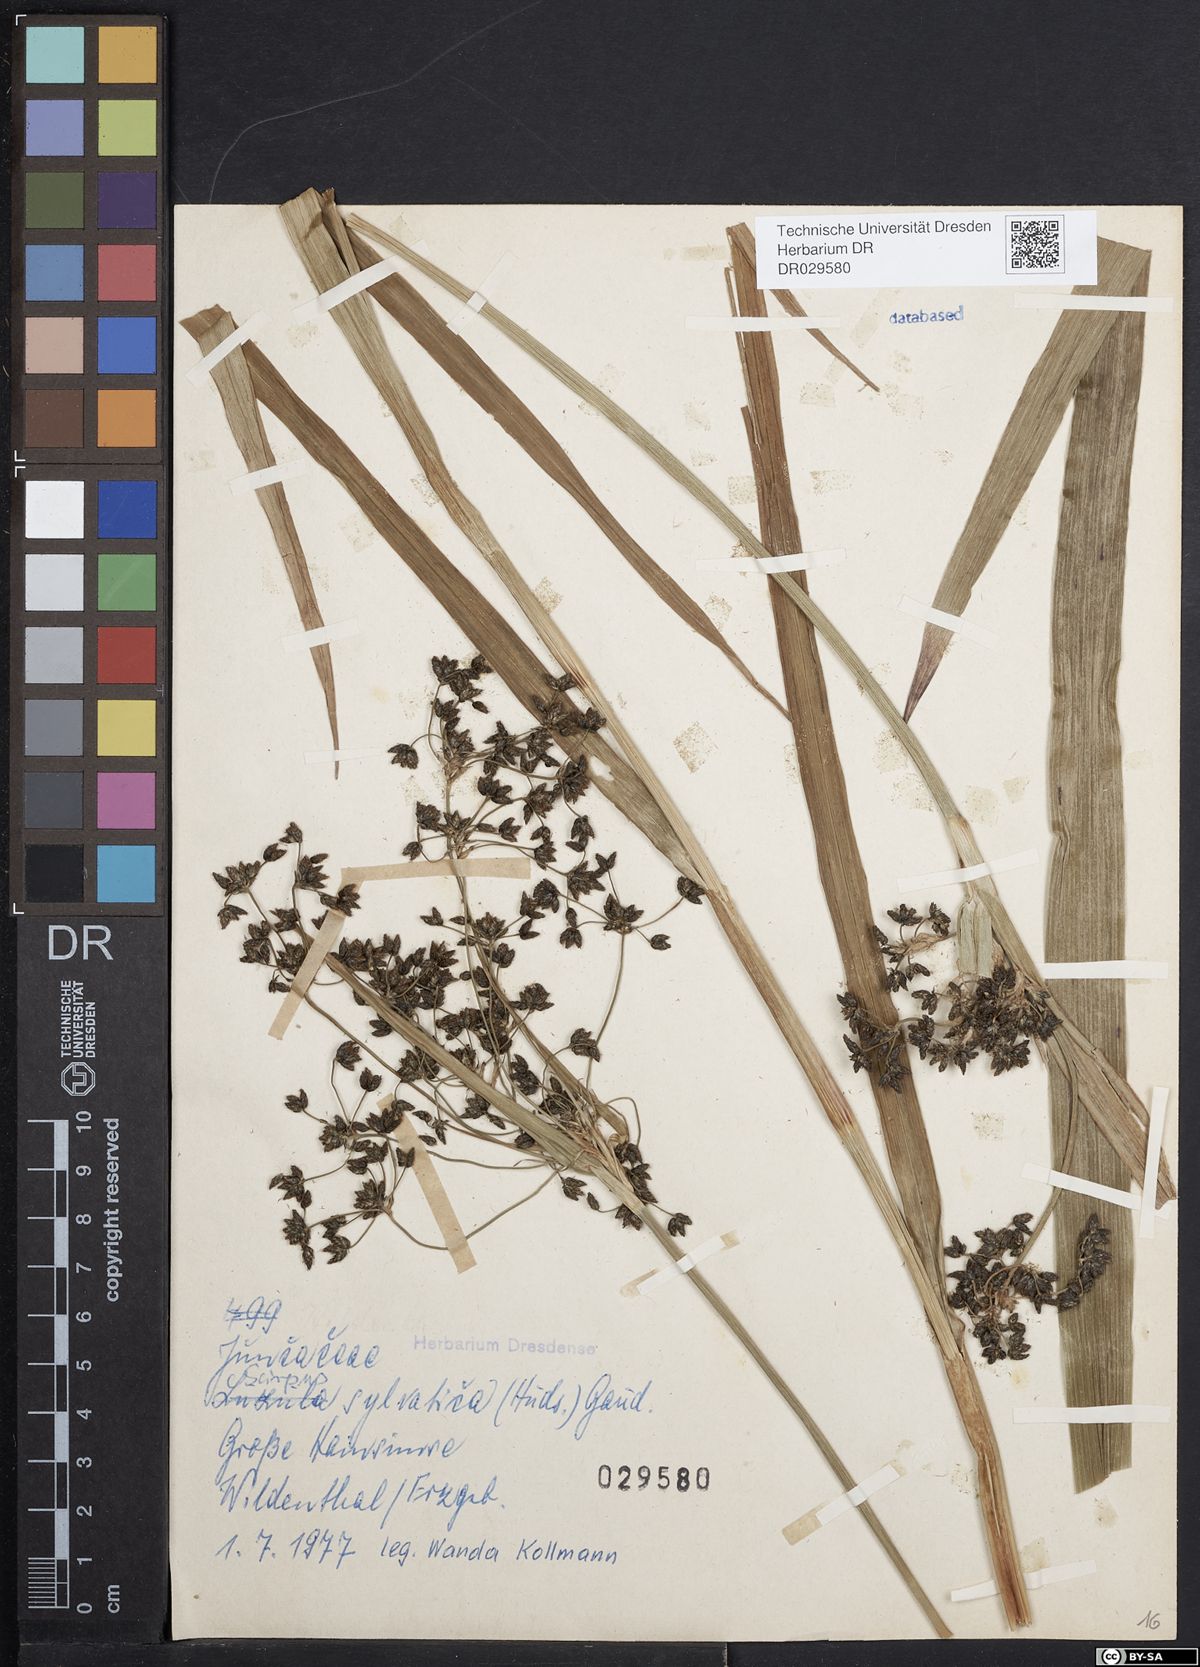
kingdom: Plantae
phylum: Tracheophyta
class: Liliopsida
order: Poales
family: Cyperaceae
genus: Scirpus
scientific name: Scirpus sylvaticus
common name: Wood club-rush
